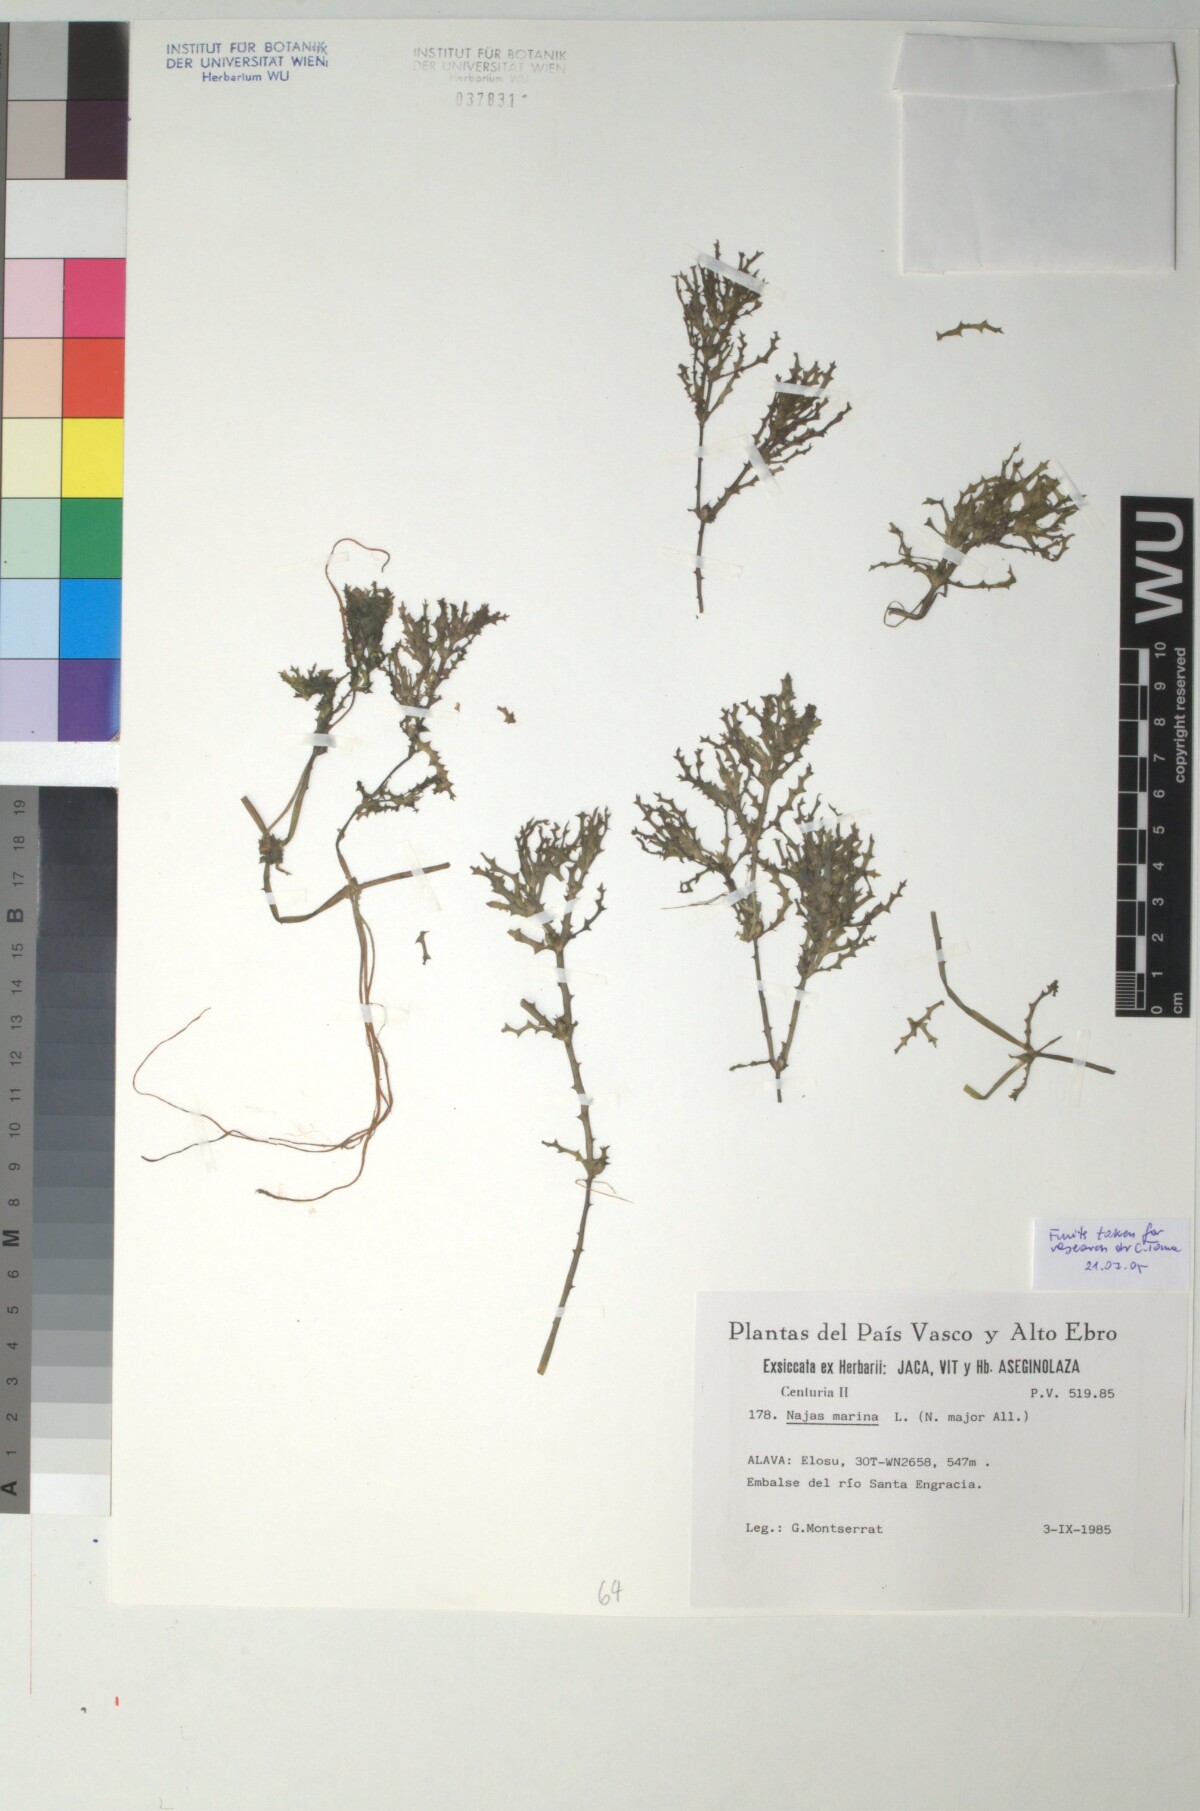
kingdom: Plantae
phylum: Tracheophyta
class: Liliopsida
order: Alismatales
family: Hydrocharitaceae
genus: Najas
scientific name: Najas marina
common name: Holly-leaved naiad
